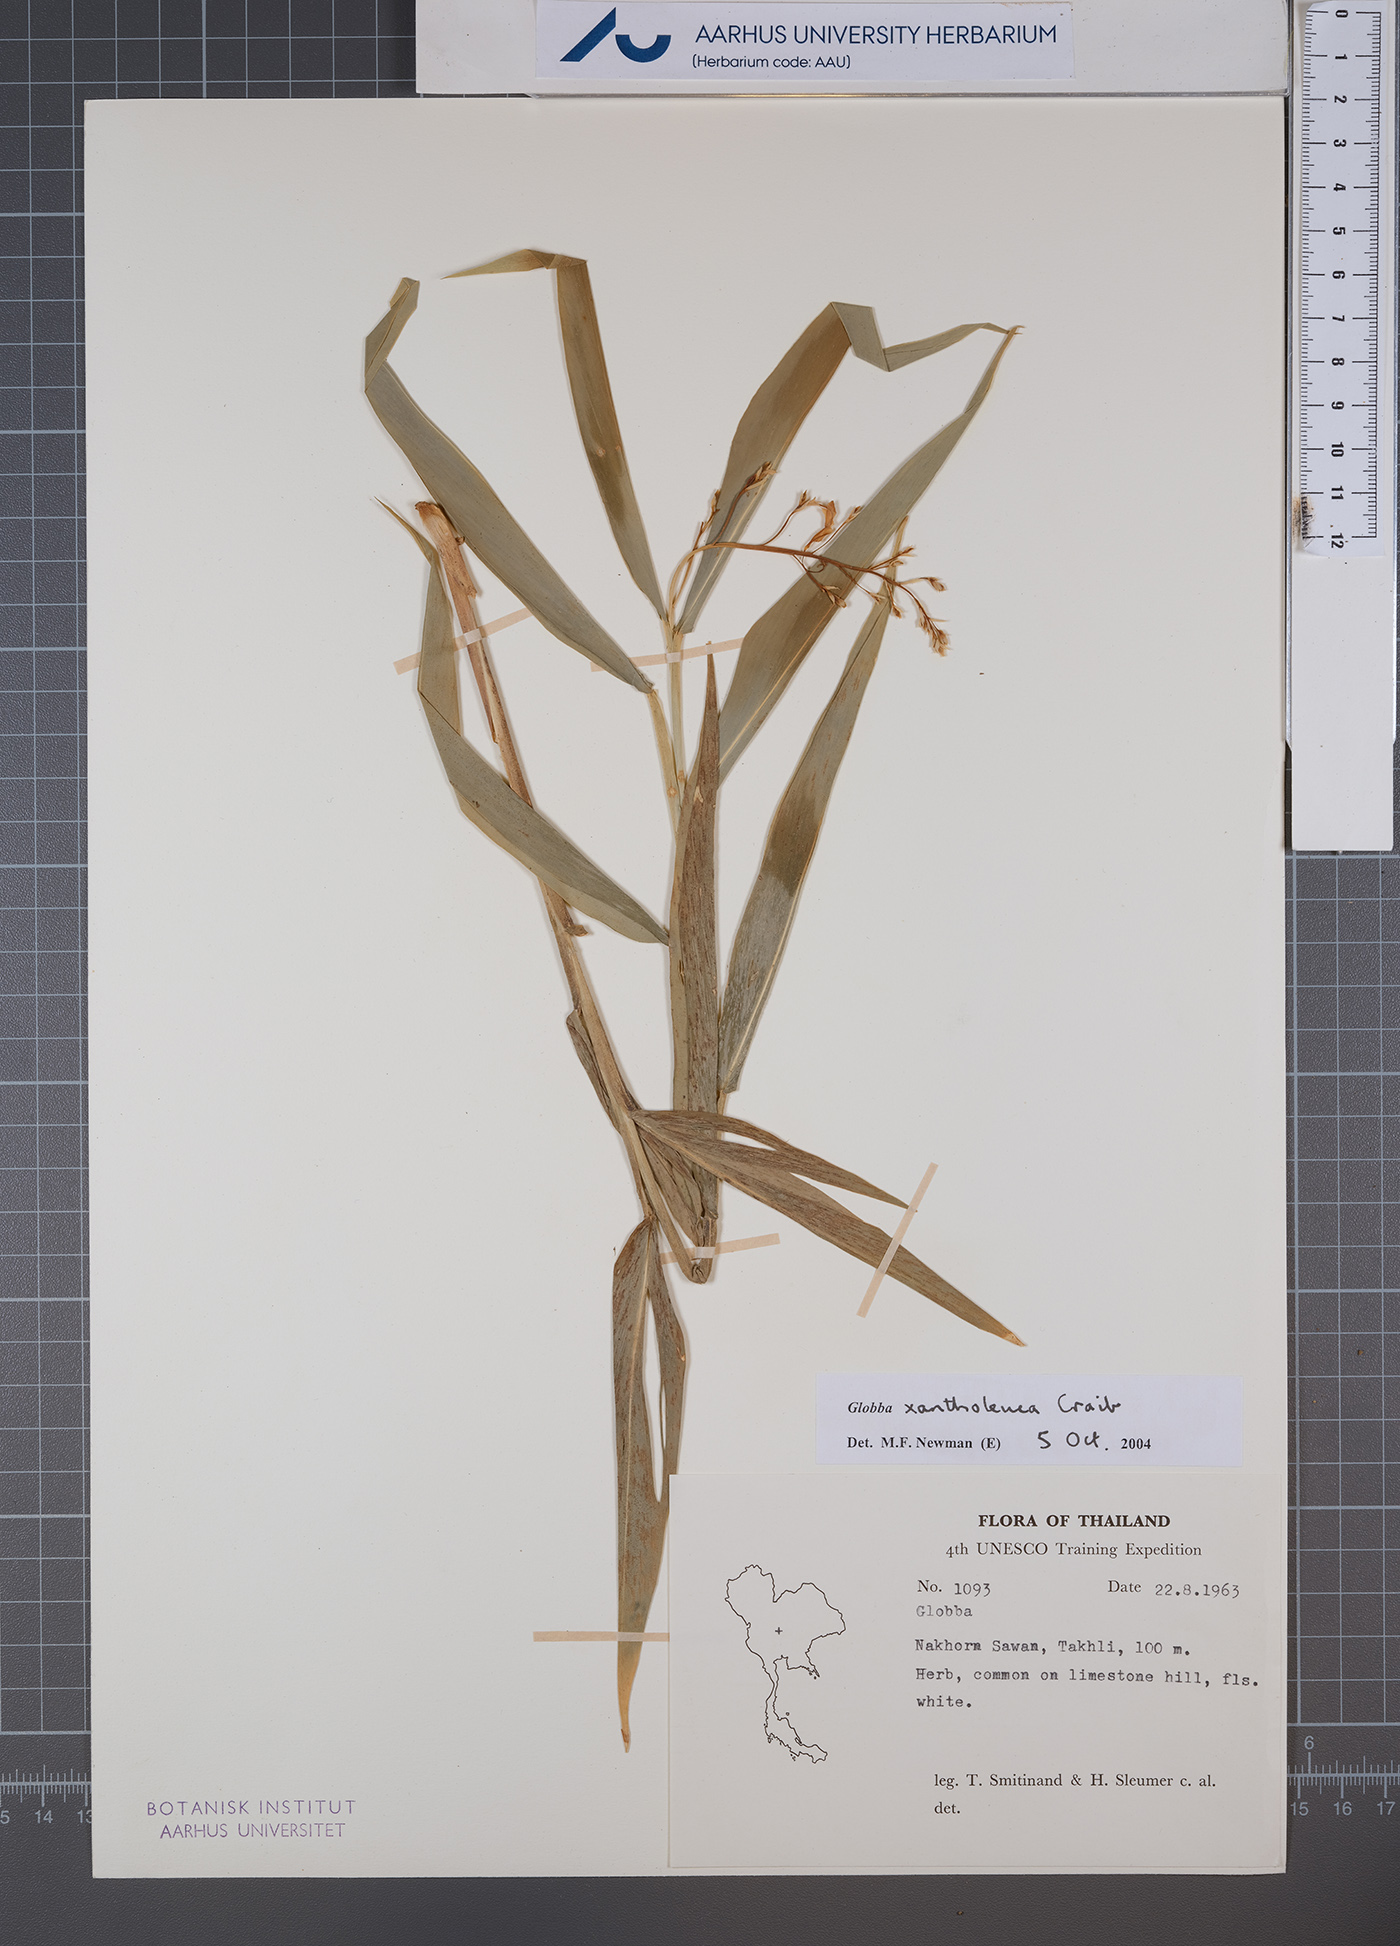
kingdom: Plantae
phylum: Tracheophyta
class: Liliopsida
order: Zingiberales
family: Zingiberaceae
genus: Globba
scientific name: Globba xantholeuca
